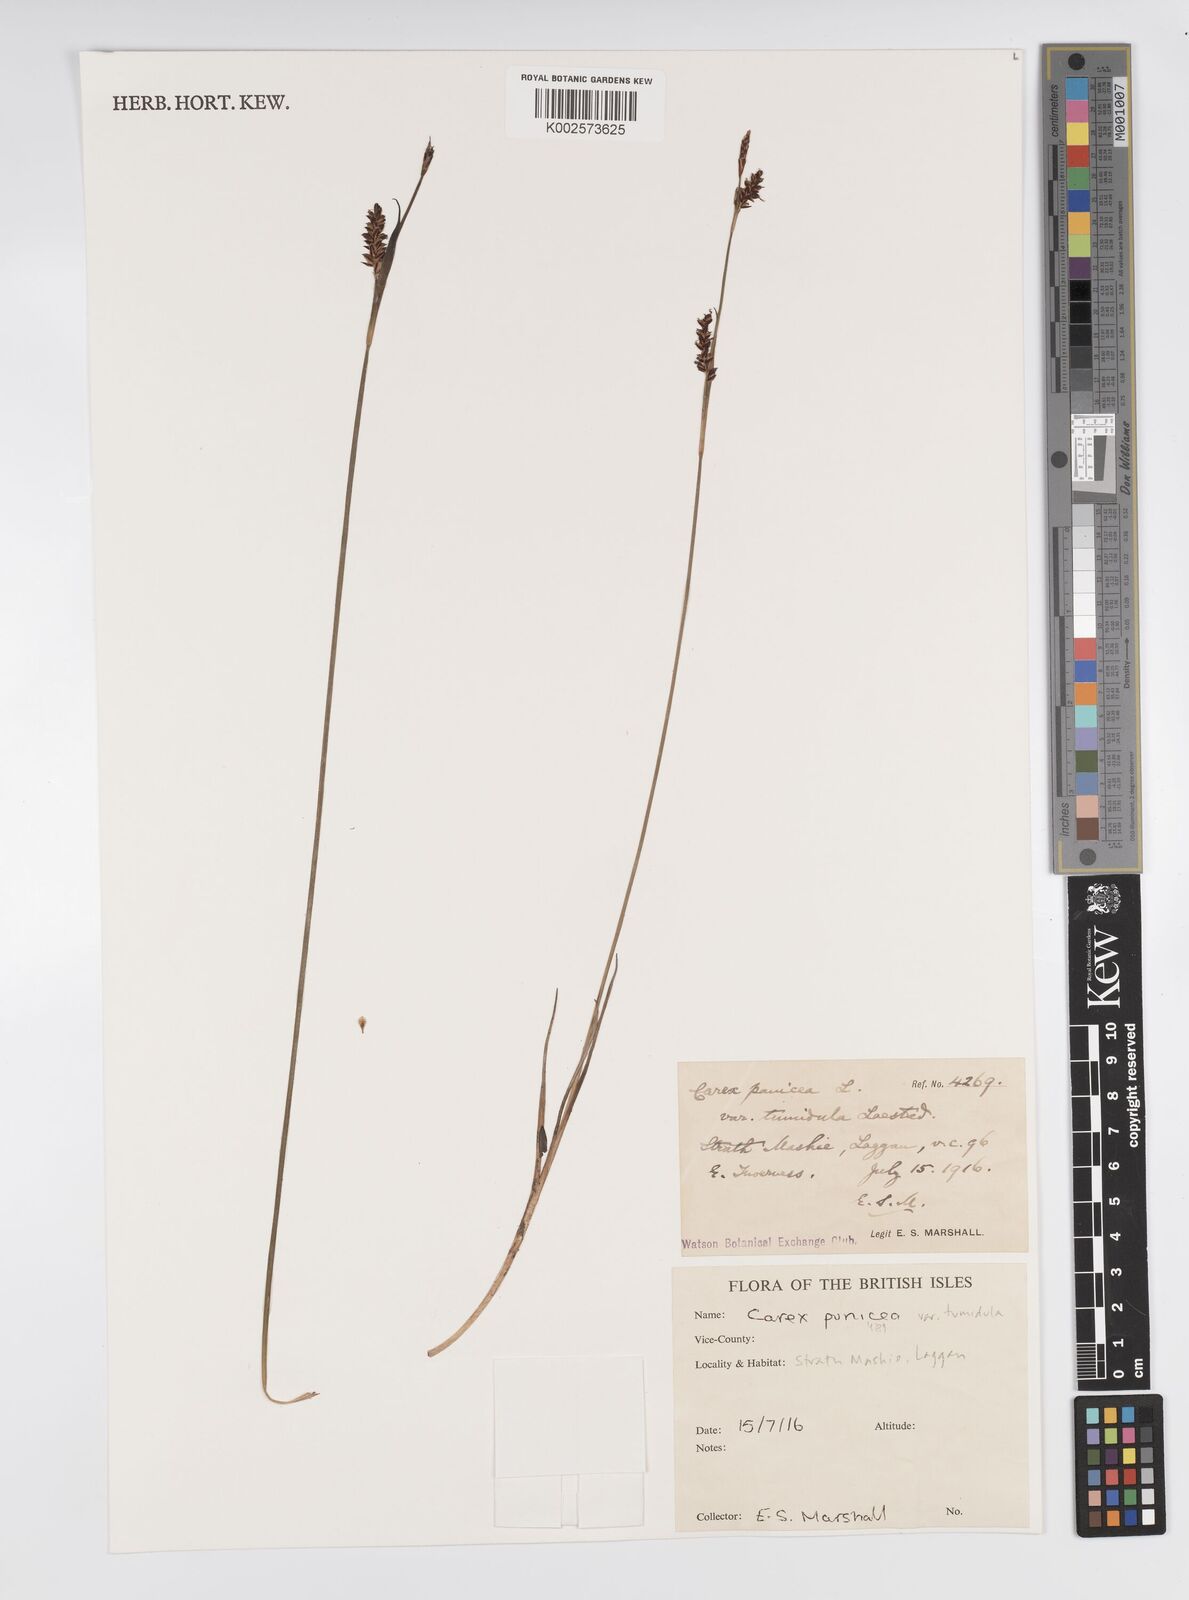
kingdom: Plantae
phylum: Tracheophyta
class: Liliopsida
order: Poales
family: Cyperaceae
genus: Carex
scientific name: Carex panicea
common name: Carnation sedge
